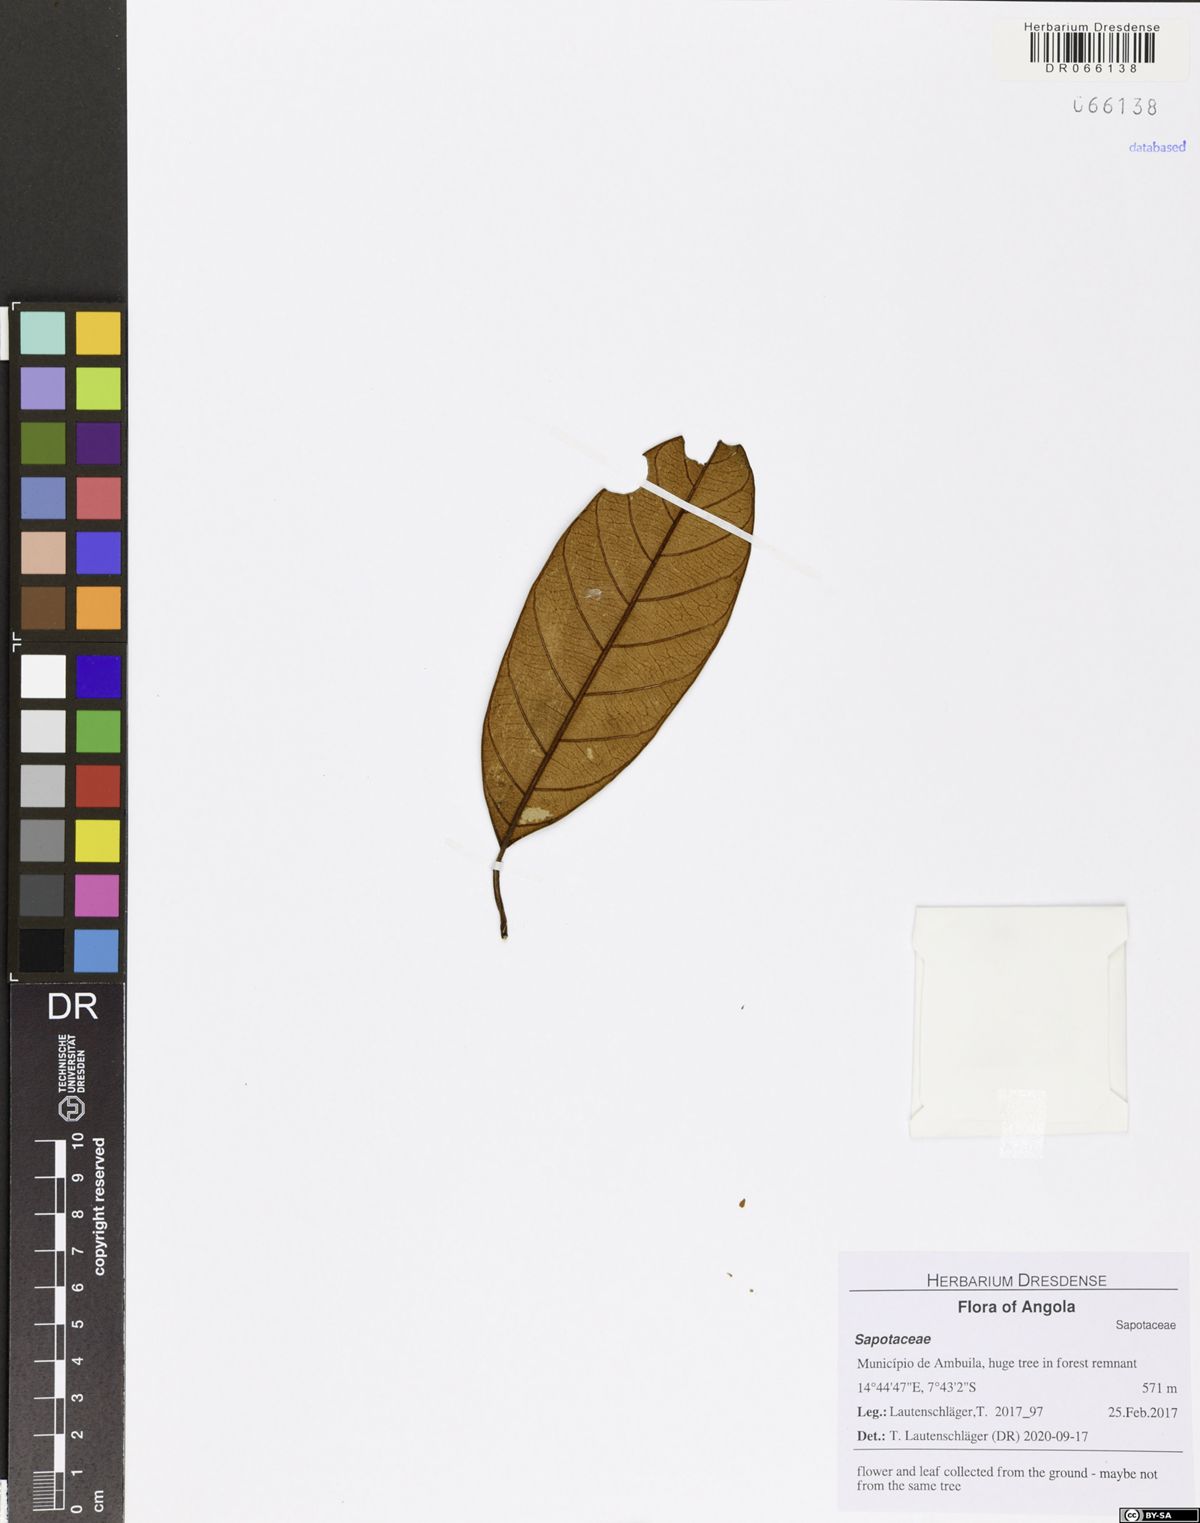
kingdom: Plantae
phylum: Tracheophyta
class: Magnoliopsida
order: Ericales
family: Sapotaceae
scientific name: Sapotaceae
